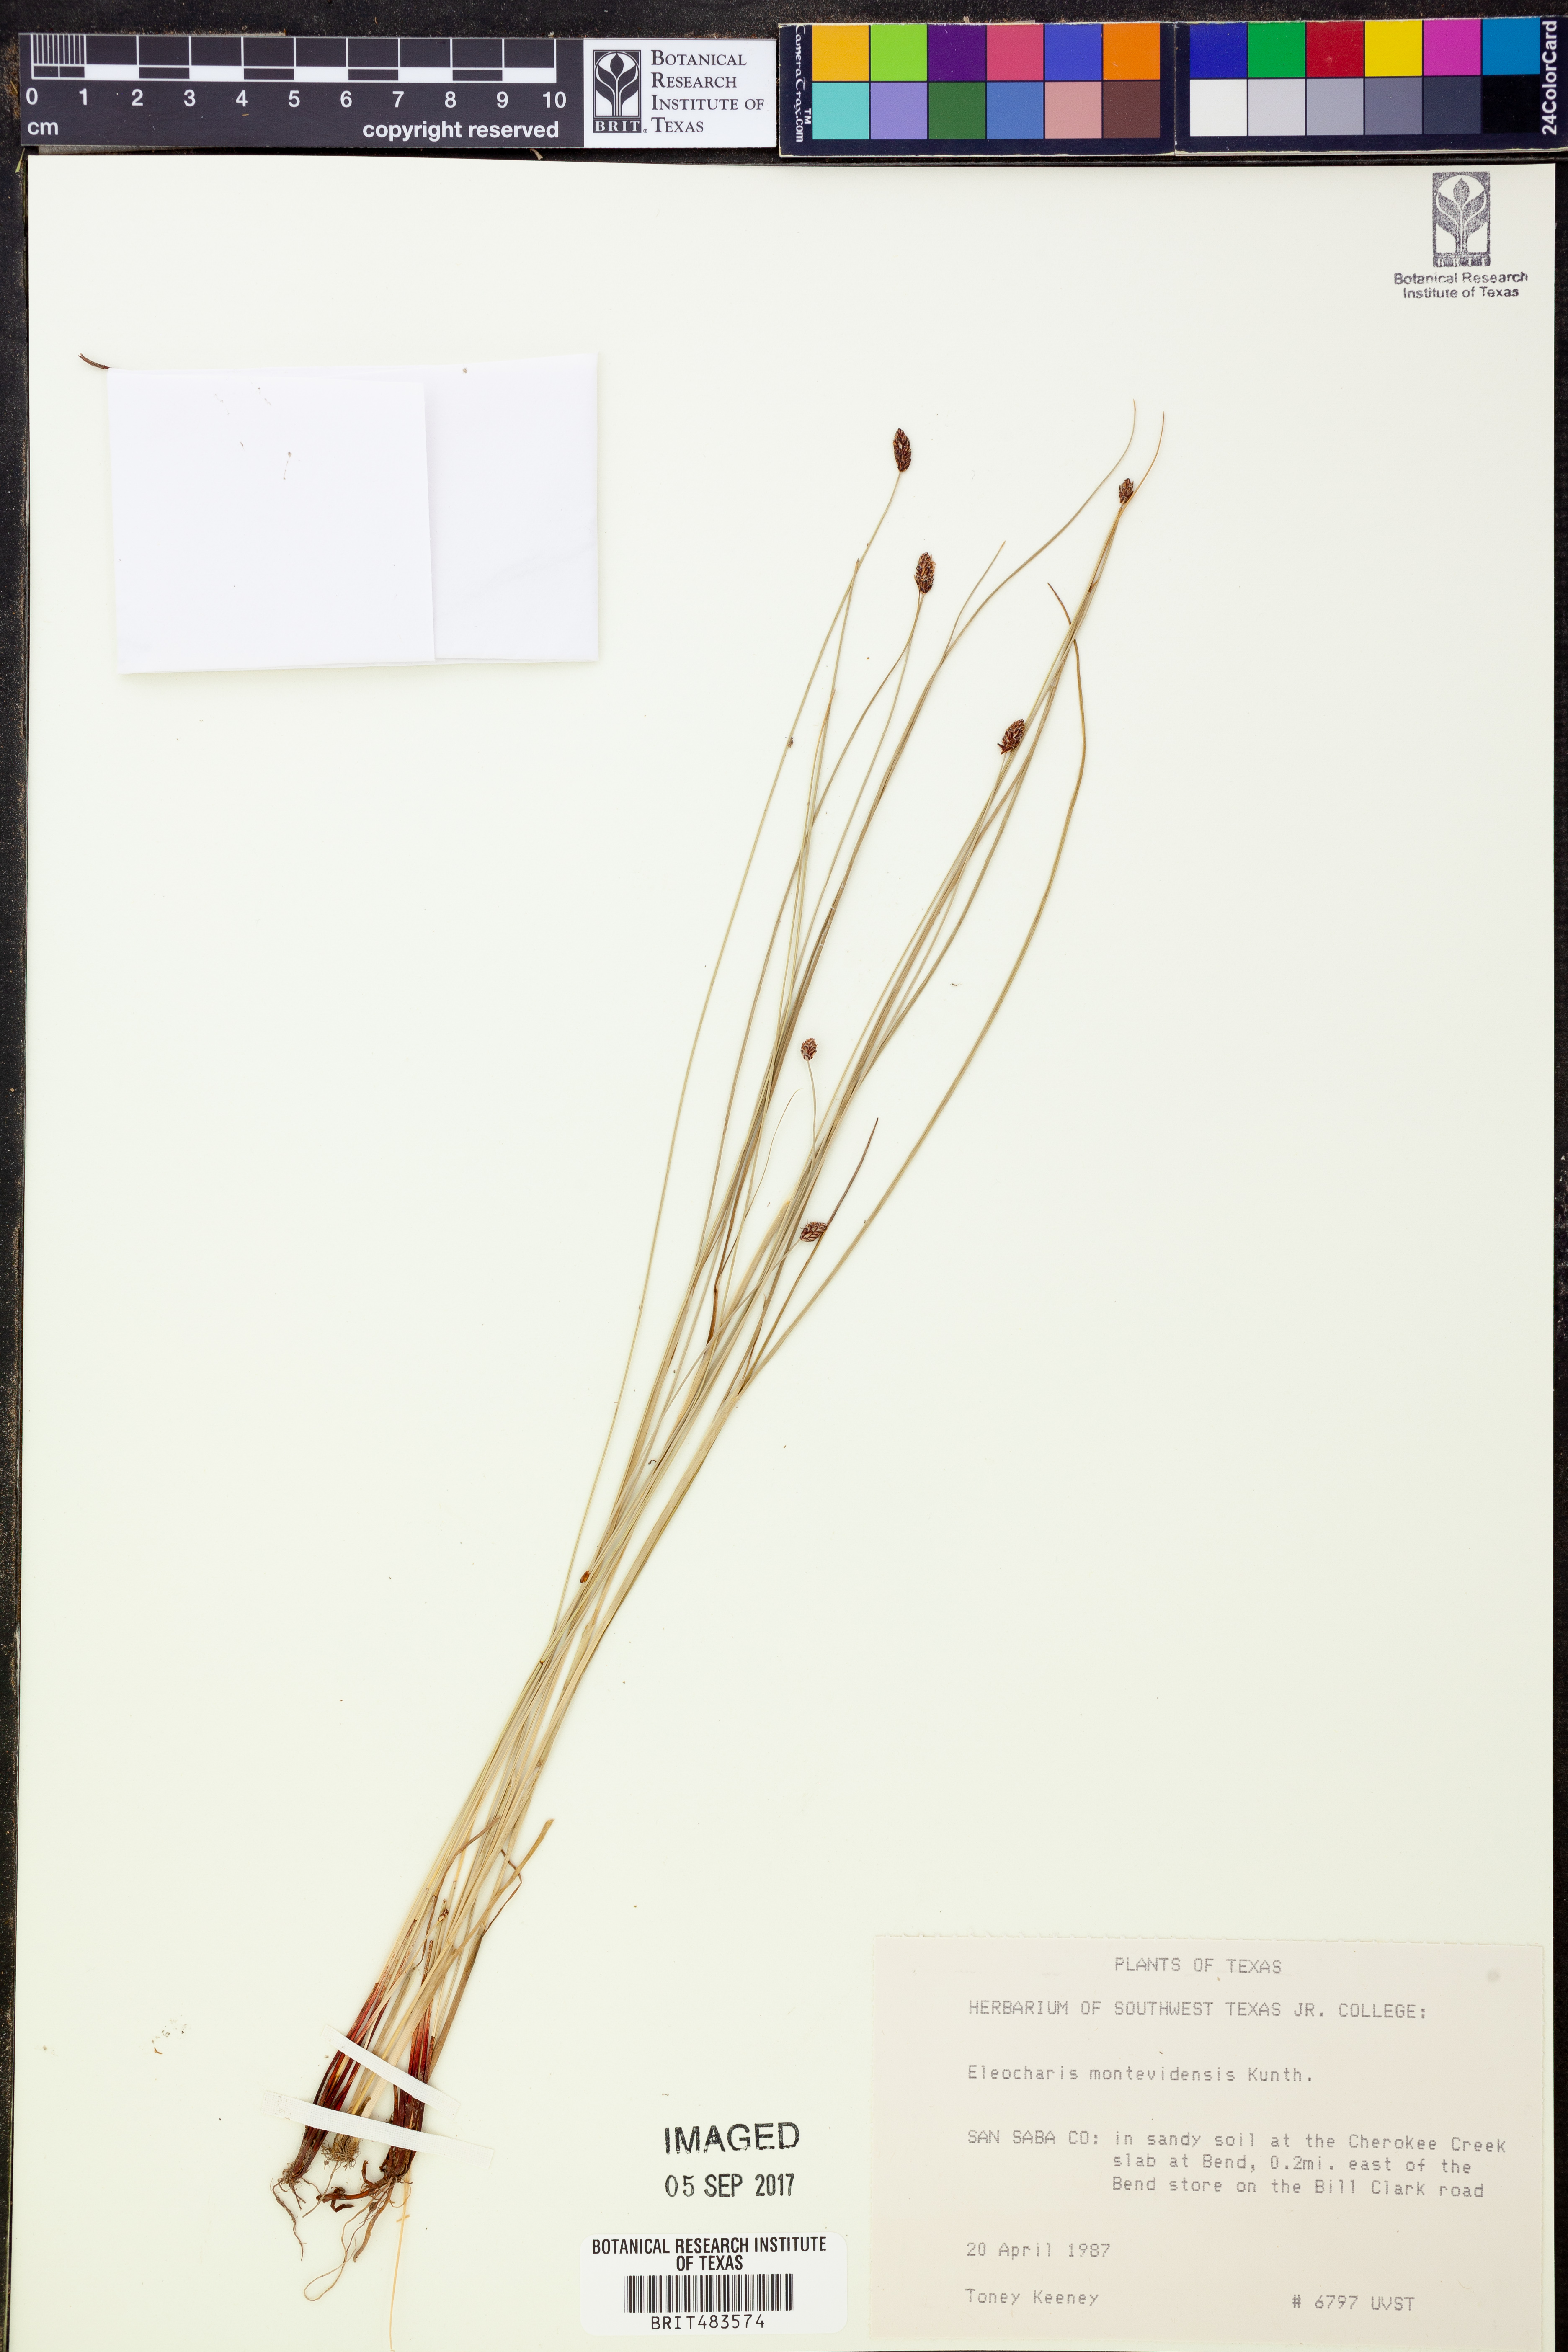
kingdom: Plantae
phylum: Tracheophyta
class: Liliopsida
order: Poales
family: Cyperaceae
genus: Eleocharis
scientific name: Eleocharis montevidensis
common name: Sand spike-rush
